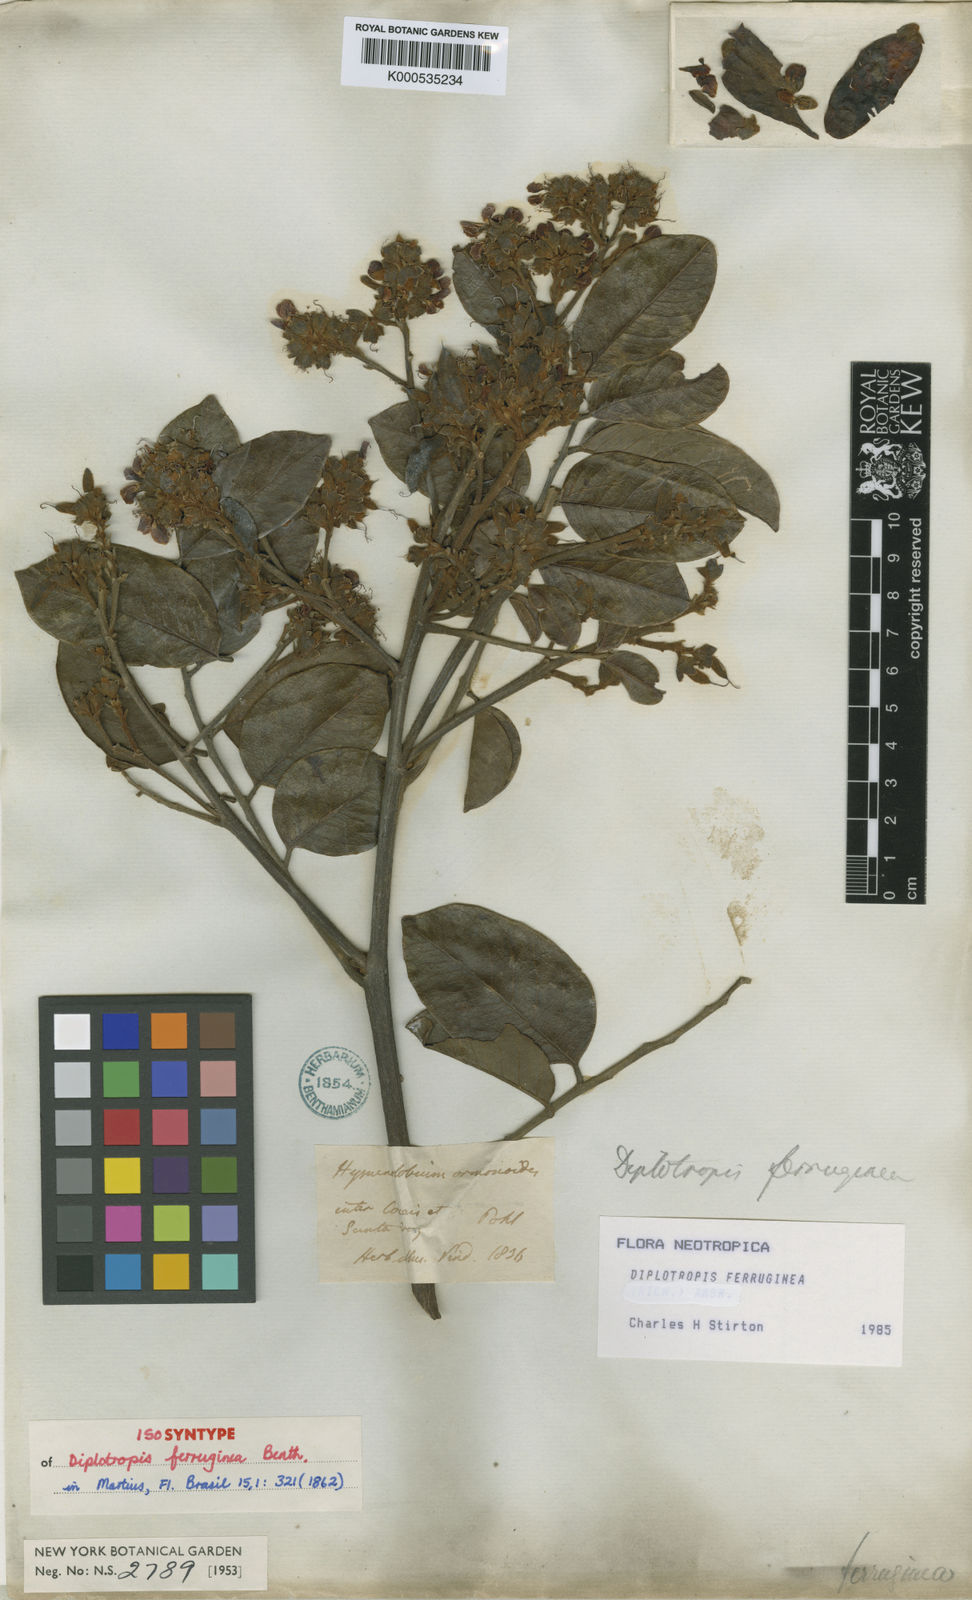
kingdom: Plantae
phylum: Tracheophyta
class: Magnoliopsida
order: Fabales
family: Fabaceae
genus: Diplotropis
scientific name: Diplotropis ferruginea
